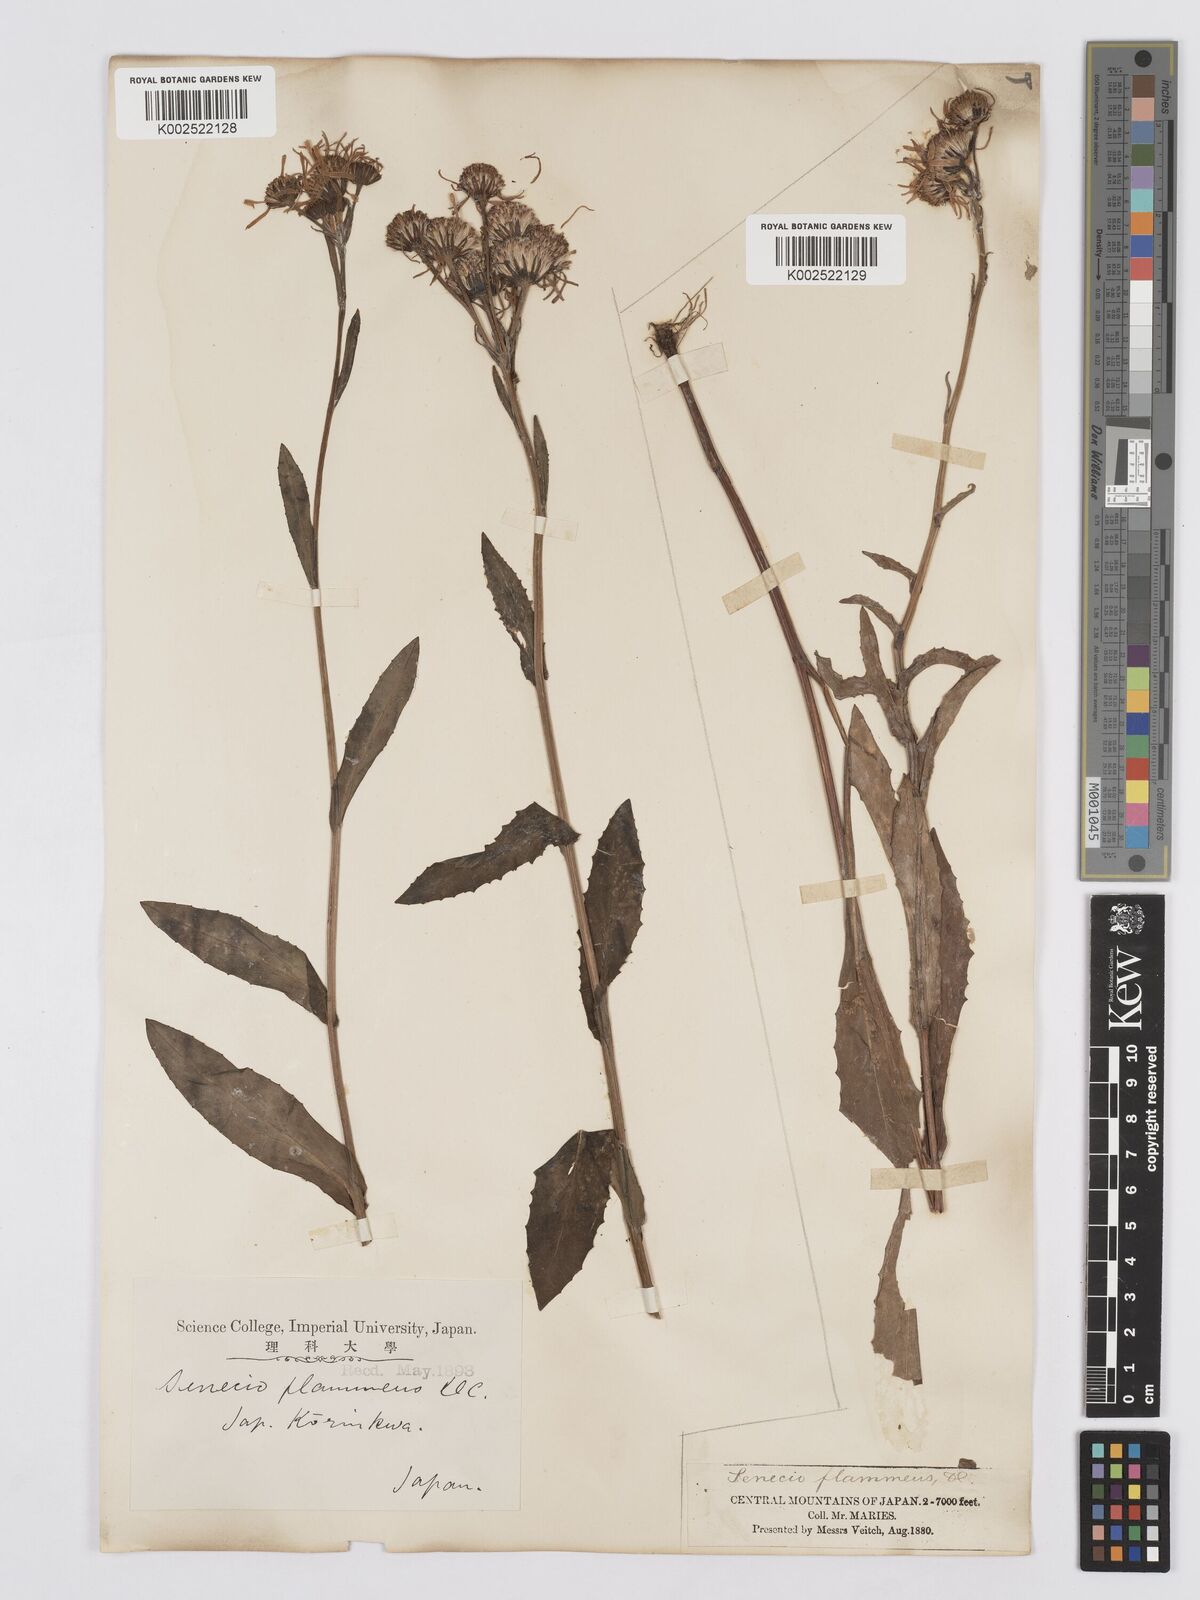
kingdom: Plantae
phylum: Tracheophyta
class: Magnoliopsida
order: Asterales
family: Asteraceae
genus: Tephroseris
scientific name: Tephroseris flammea
